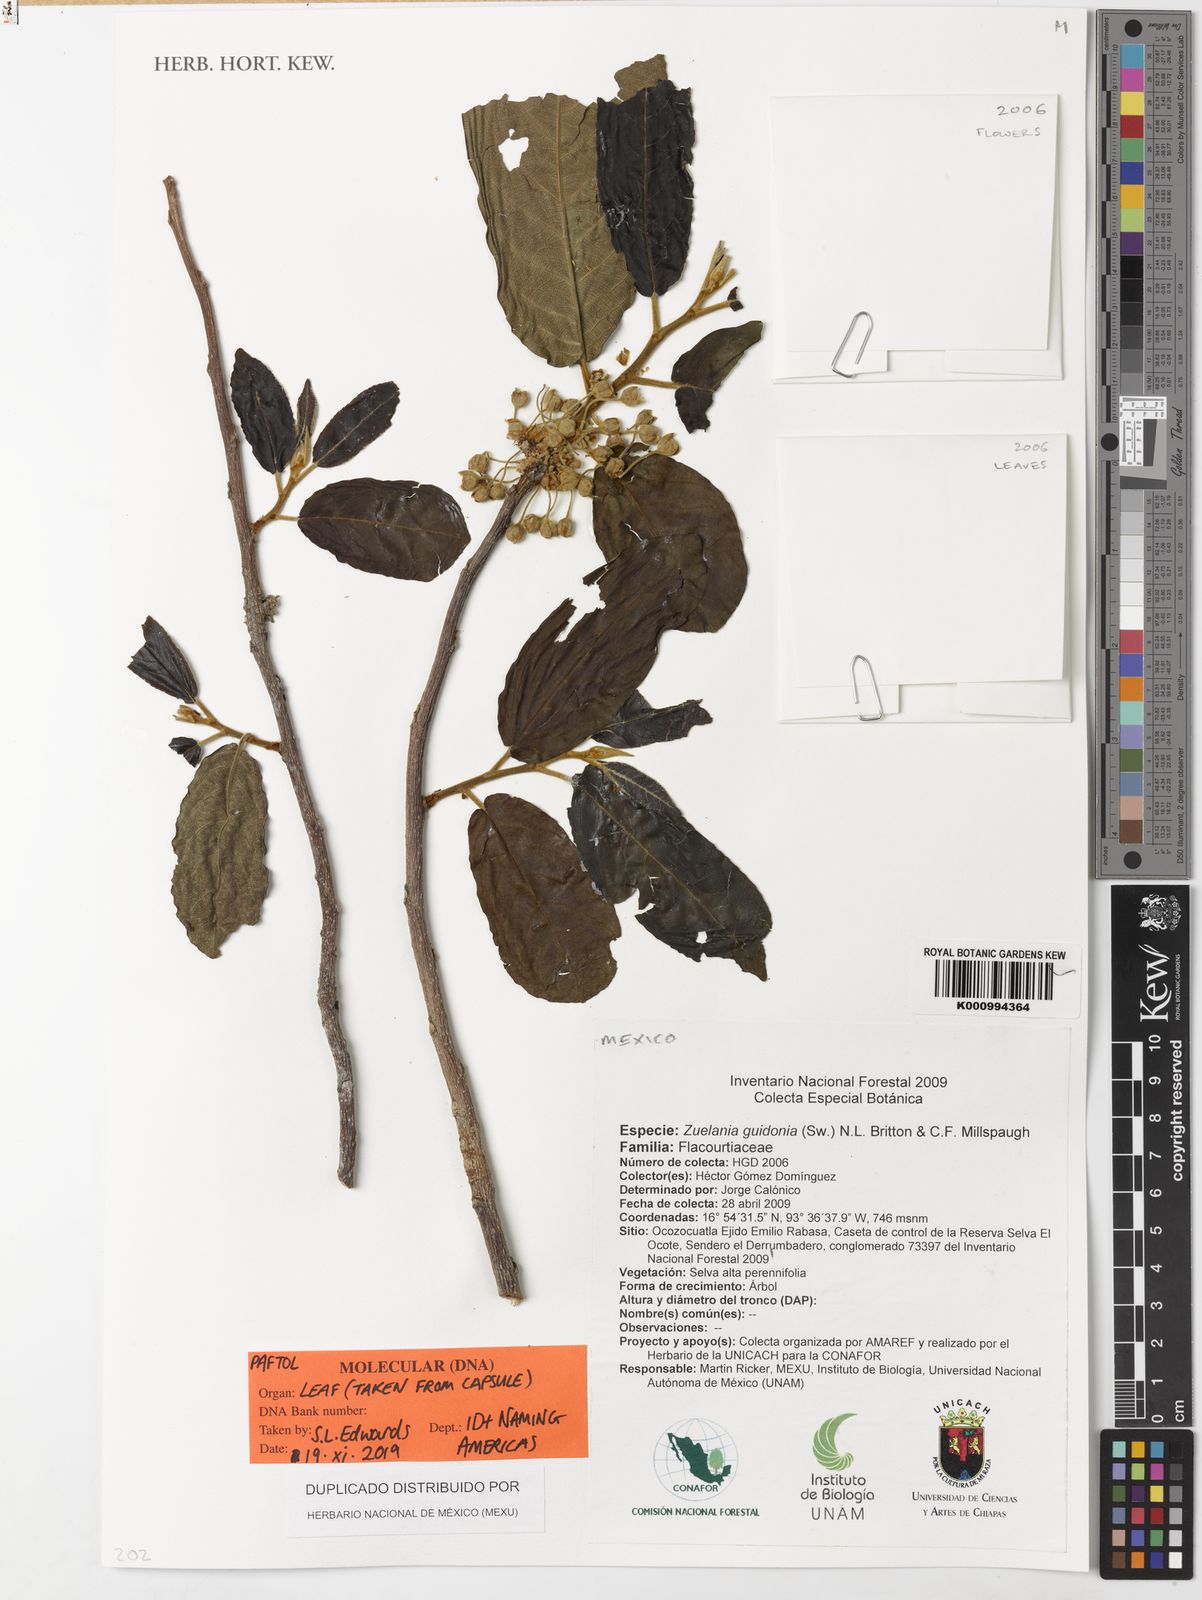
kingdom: Plantae
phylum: Tracheophyta
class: Magnoliopsida
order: Malpighiales
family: Salicaceae
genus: Casearia
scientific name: Casearia icosandra
